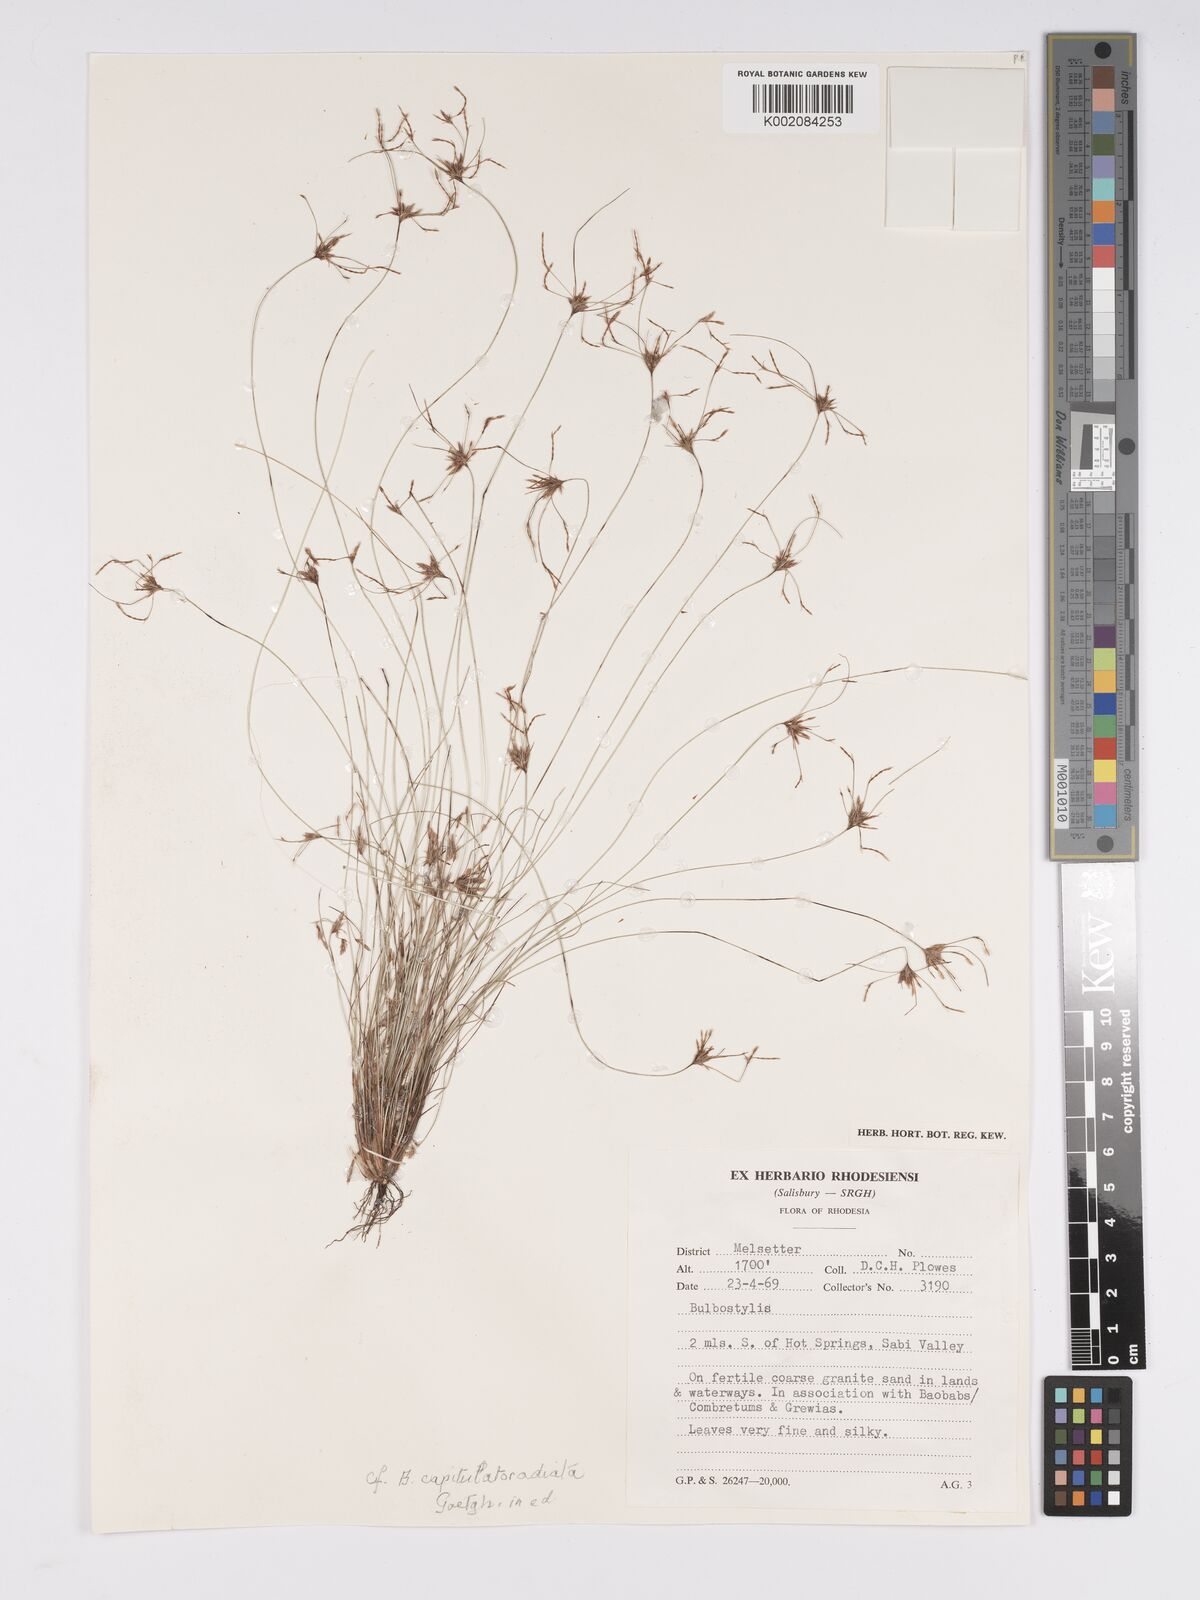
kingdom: Plantae
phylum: Tracheophyta
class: Liliopsida
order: Poales
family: Cyperaceae
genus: Bulbostylis
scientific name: Bulbostylis
